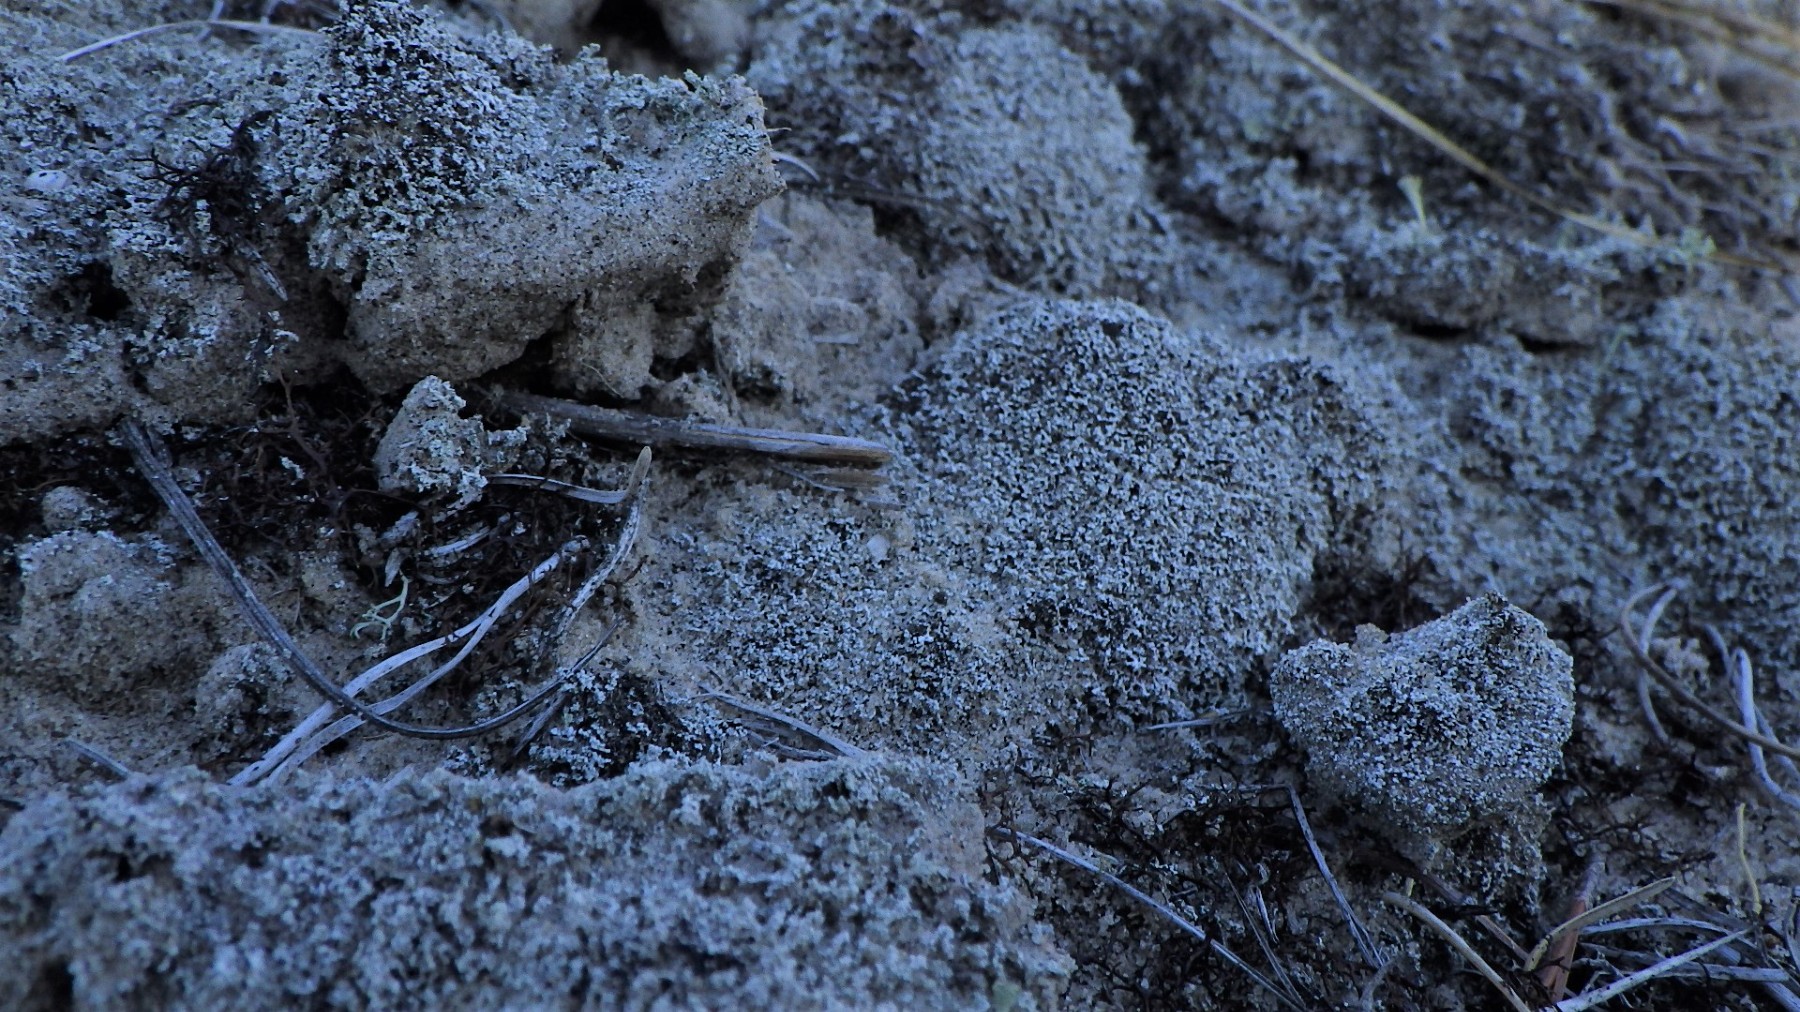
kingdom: Fungi
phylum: Ascomycota
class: Lecanoromycetes
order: Lecanorales
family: Stereocaulaceae
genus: Stereocaulon
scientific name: Stereocaulon condensatum
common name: lav korallav
